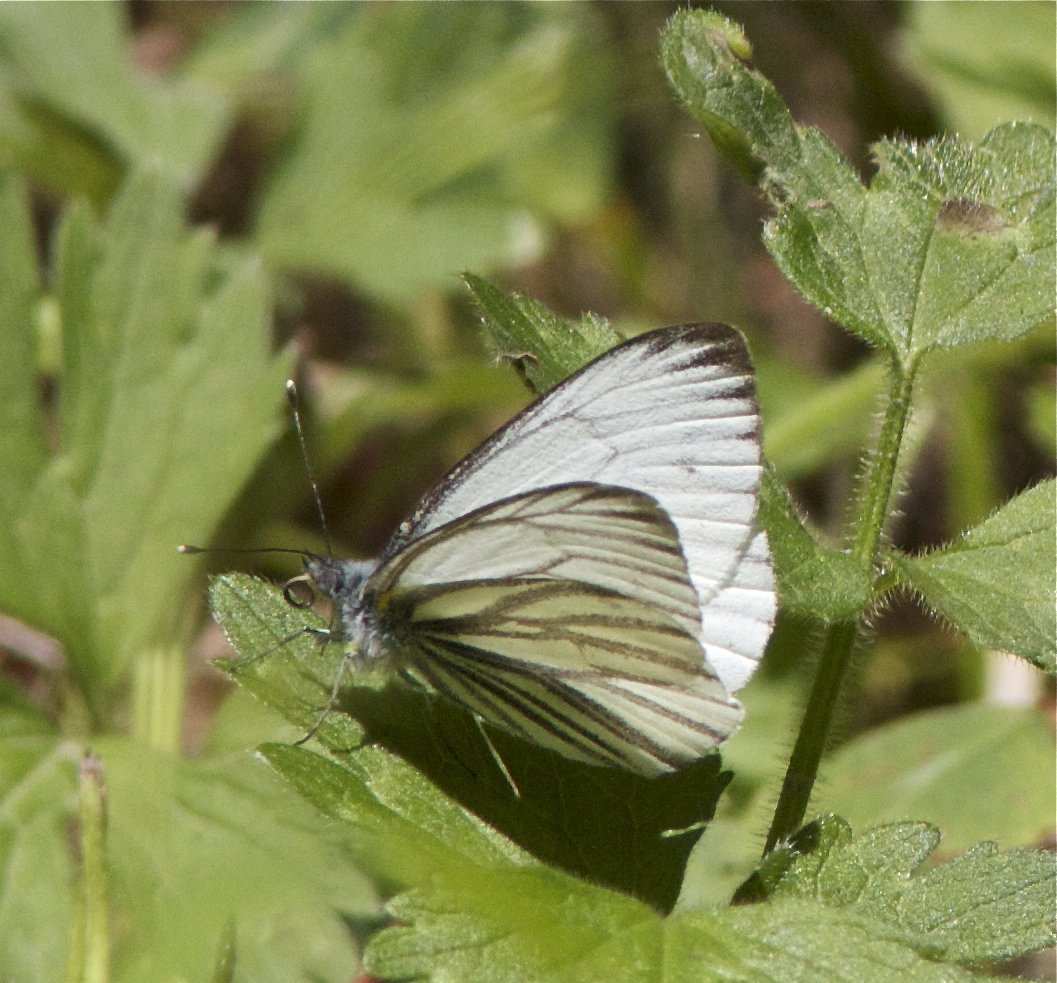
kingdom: Animalia
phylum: Arthropoda
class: Insecta
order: Lepidoptera
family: Pieridae
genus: Pieris
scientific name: Pieris marginalis
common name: Margined White
